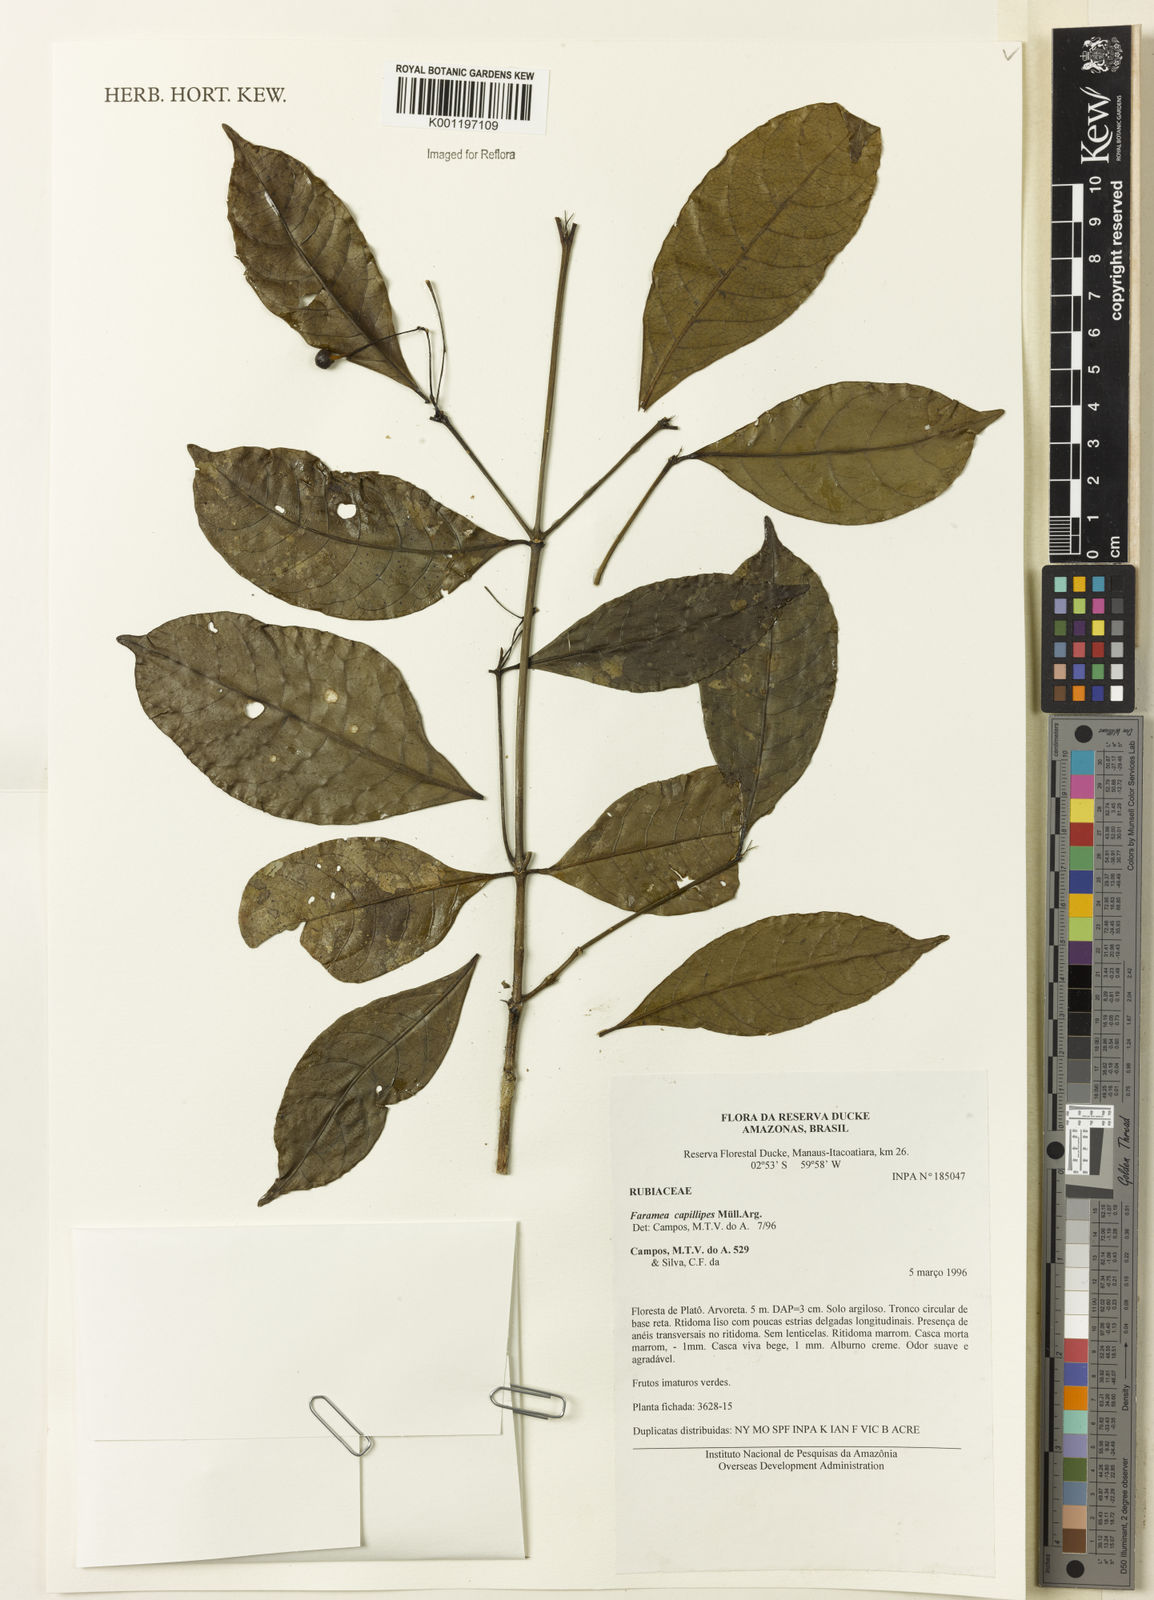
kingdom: Plantae
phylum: Tracheophyta
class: Magnoliopsida
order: Gentianales
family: Rubiaceae
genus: Faramea
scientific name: Faramea
